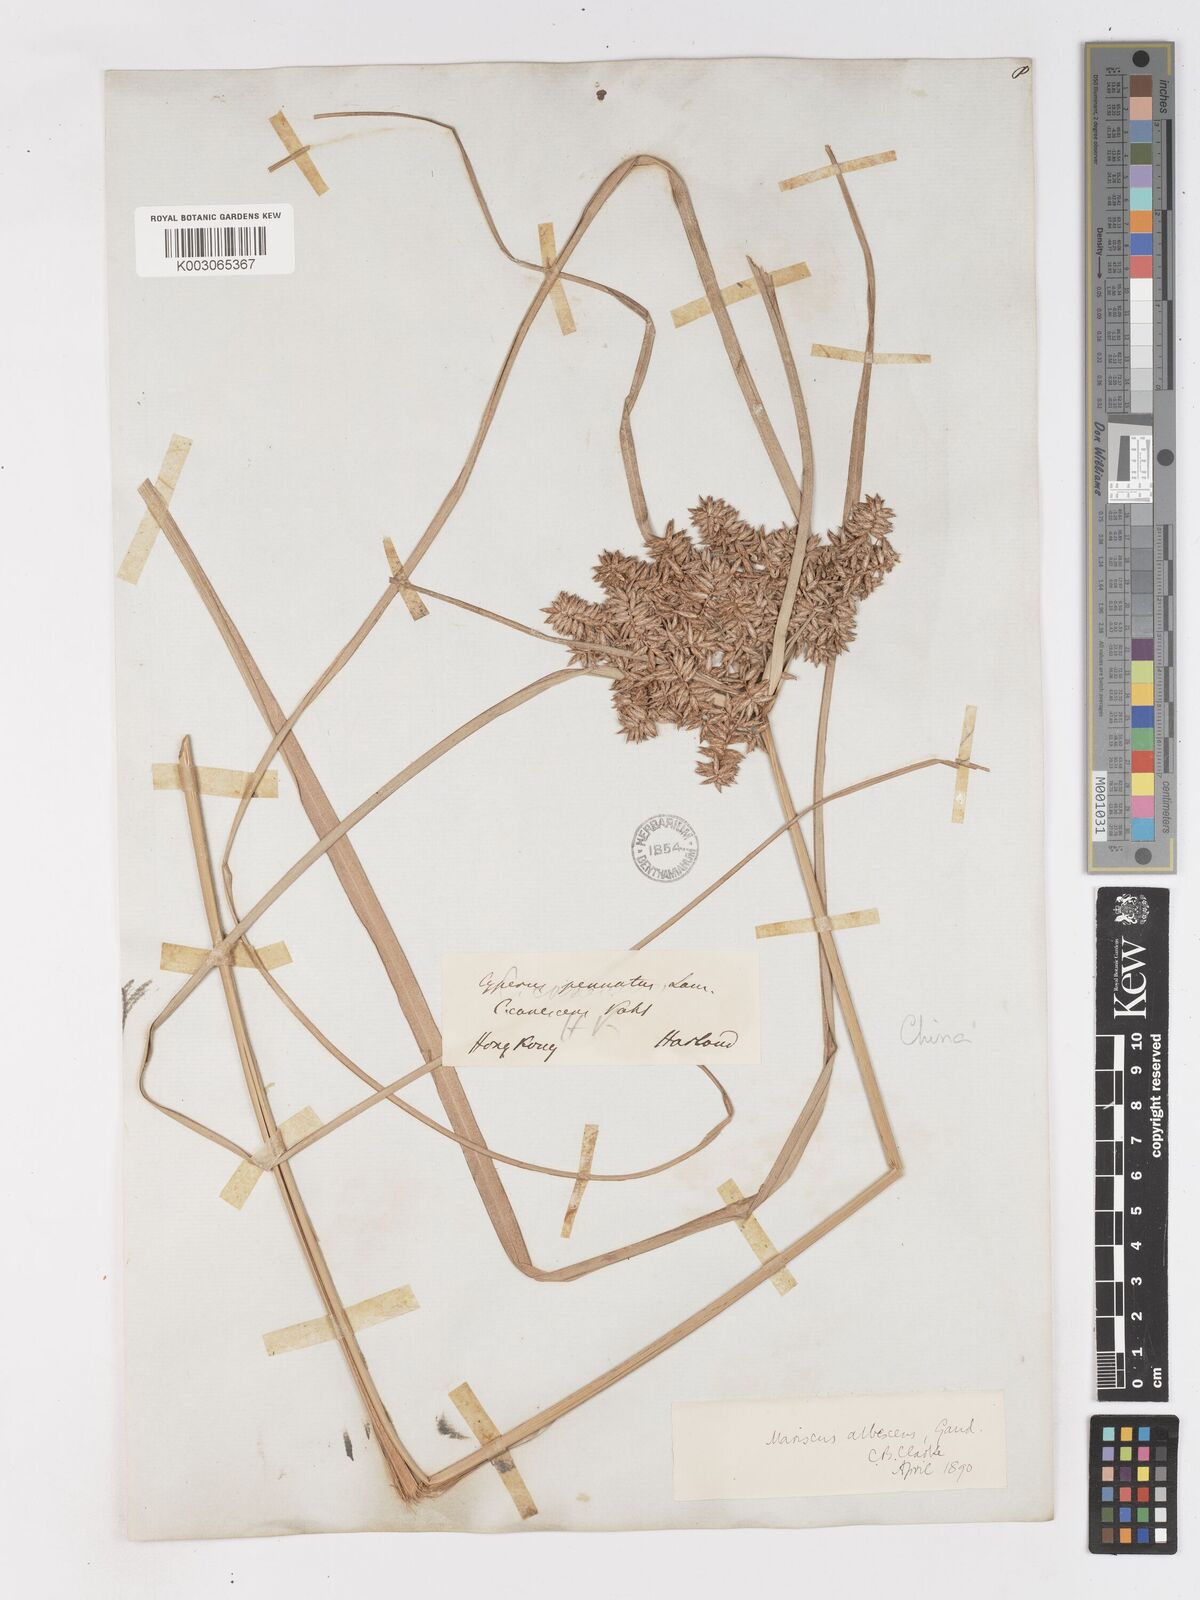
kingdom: Plantae
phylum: Tracheophyta
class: Liliopsida
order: Poales
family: Cyperaceae
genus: Cyperus
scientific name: Cyperus javanicus
